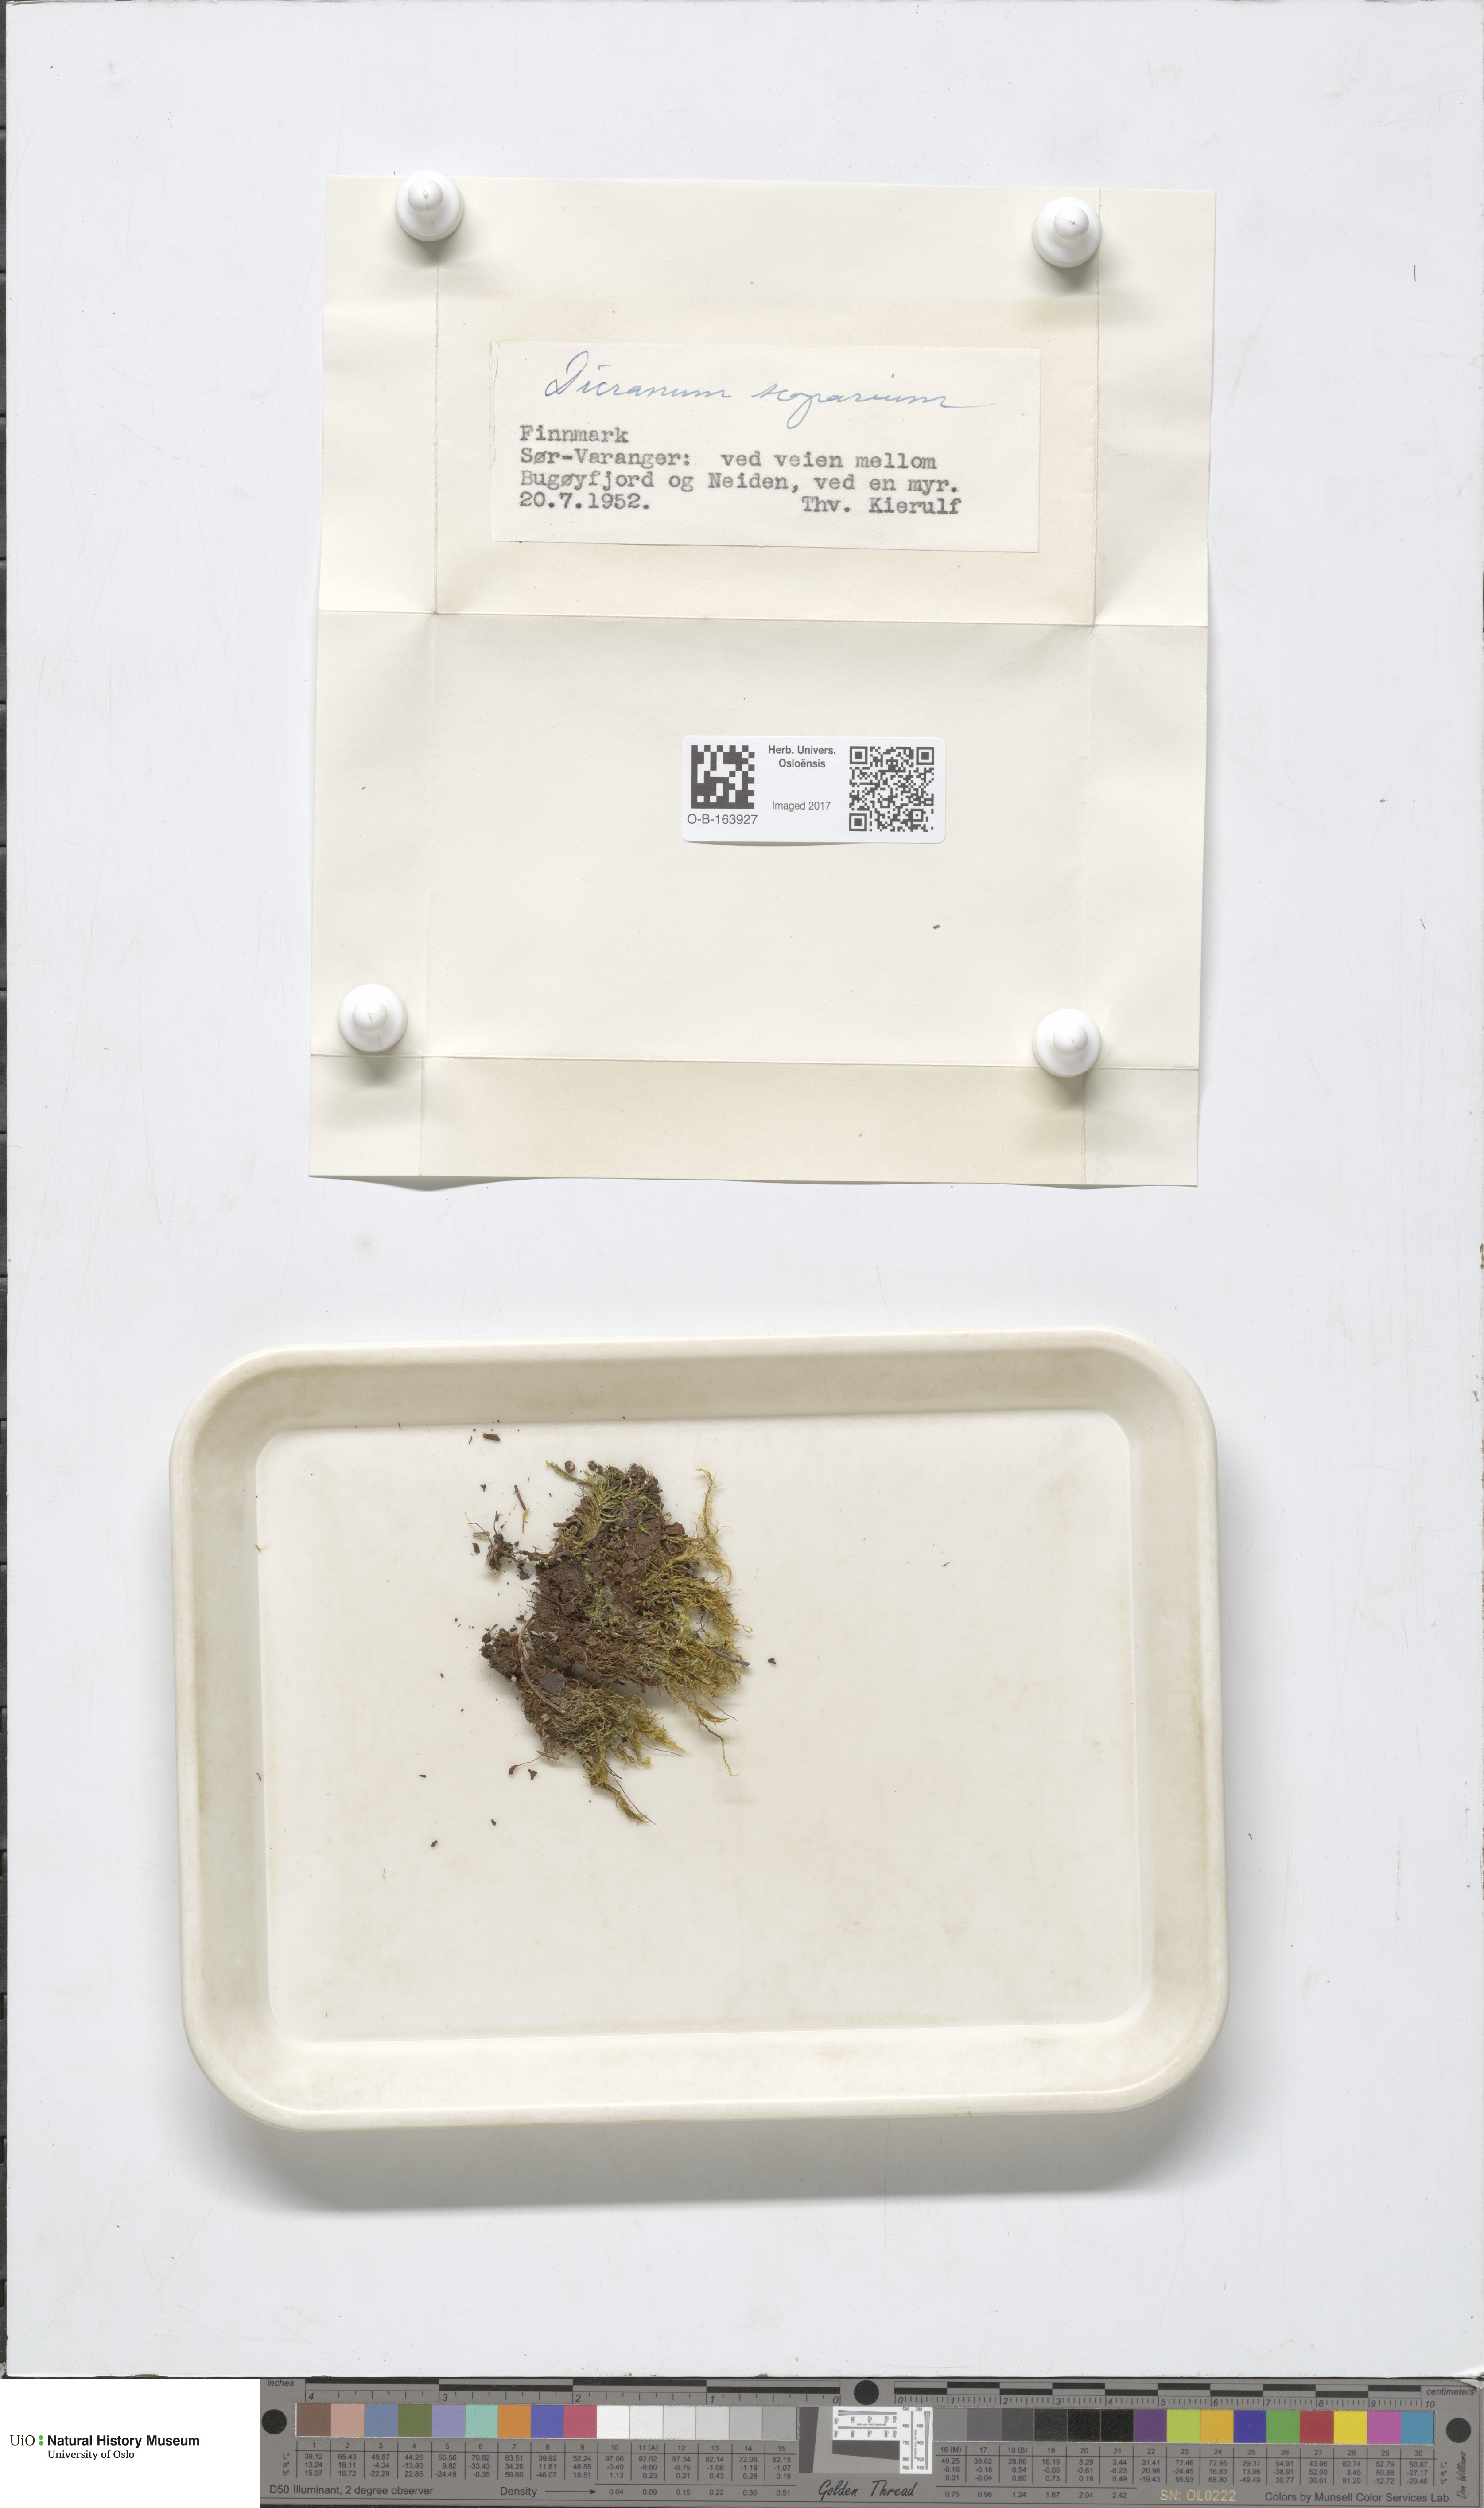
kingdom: Plantae
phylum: Bryophyta
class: Bryopsida
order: Dicranales
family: Dicranaceae
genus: Dicranum
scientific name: Dicranum scoparium
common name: Broom fork-moss
